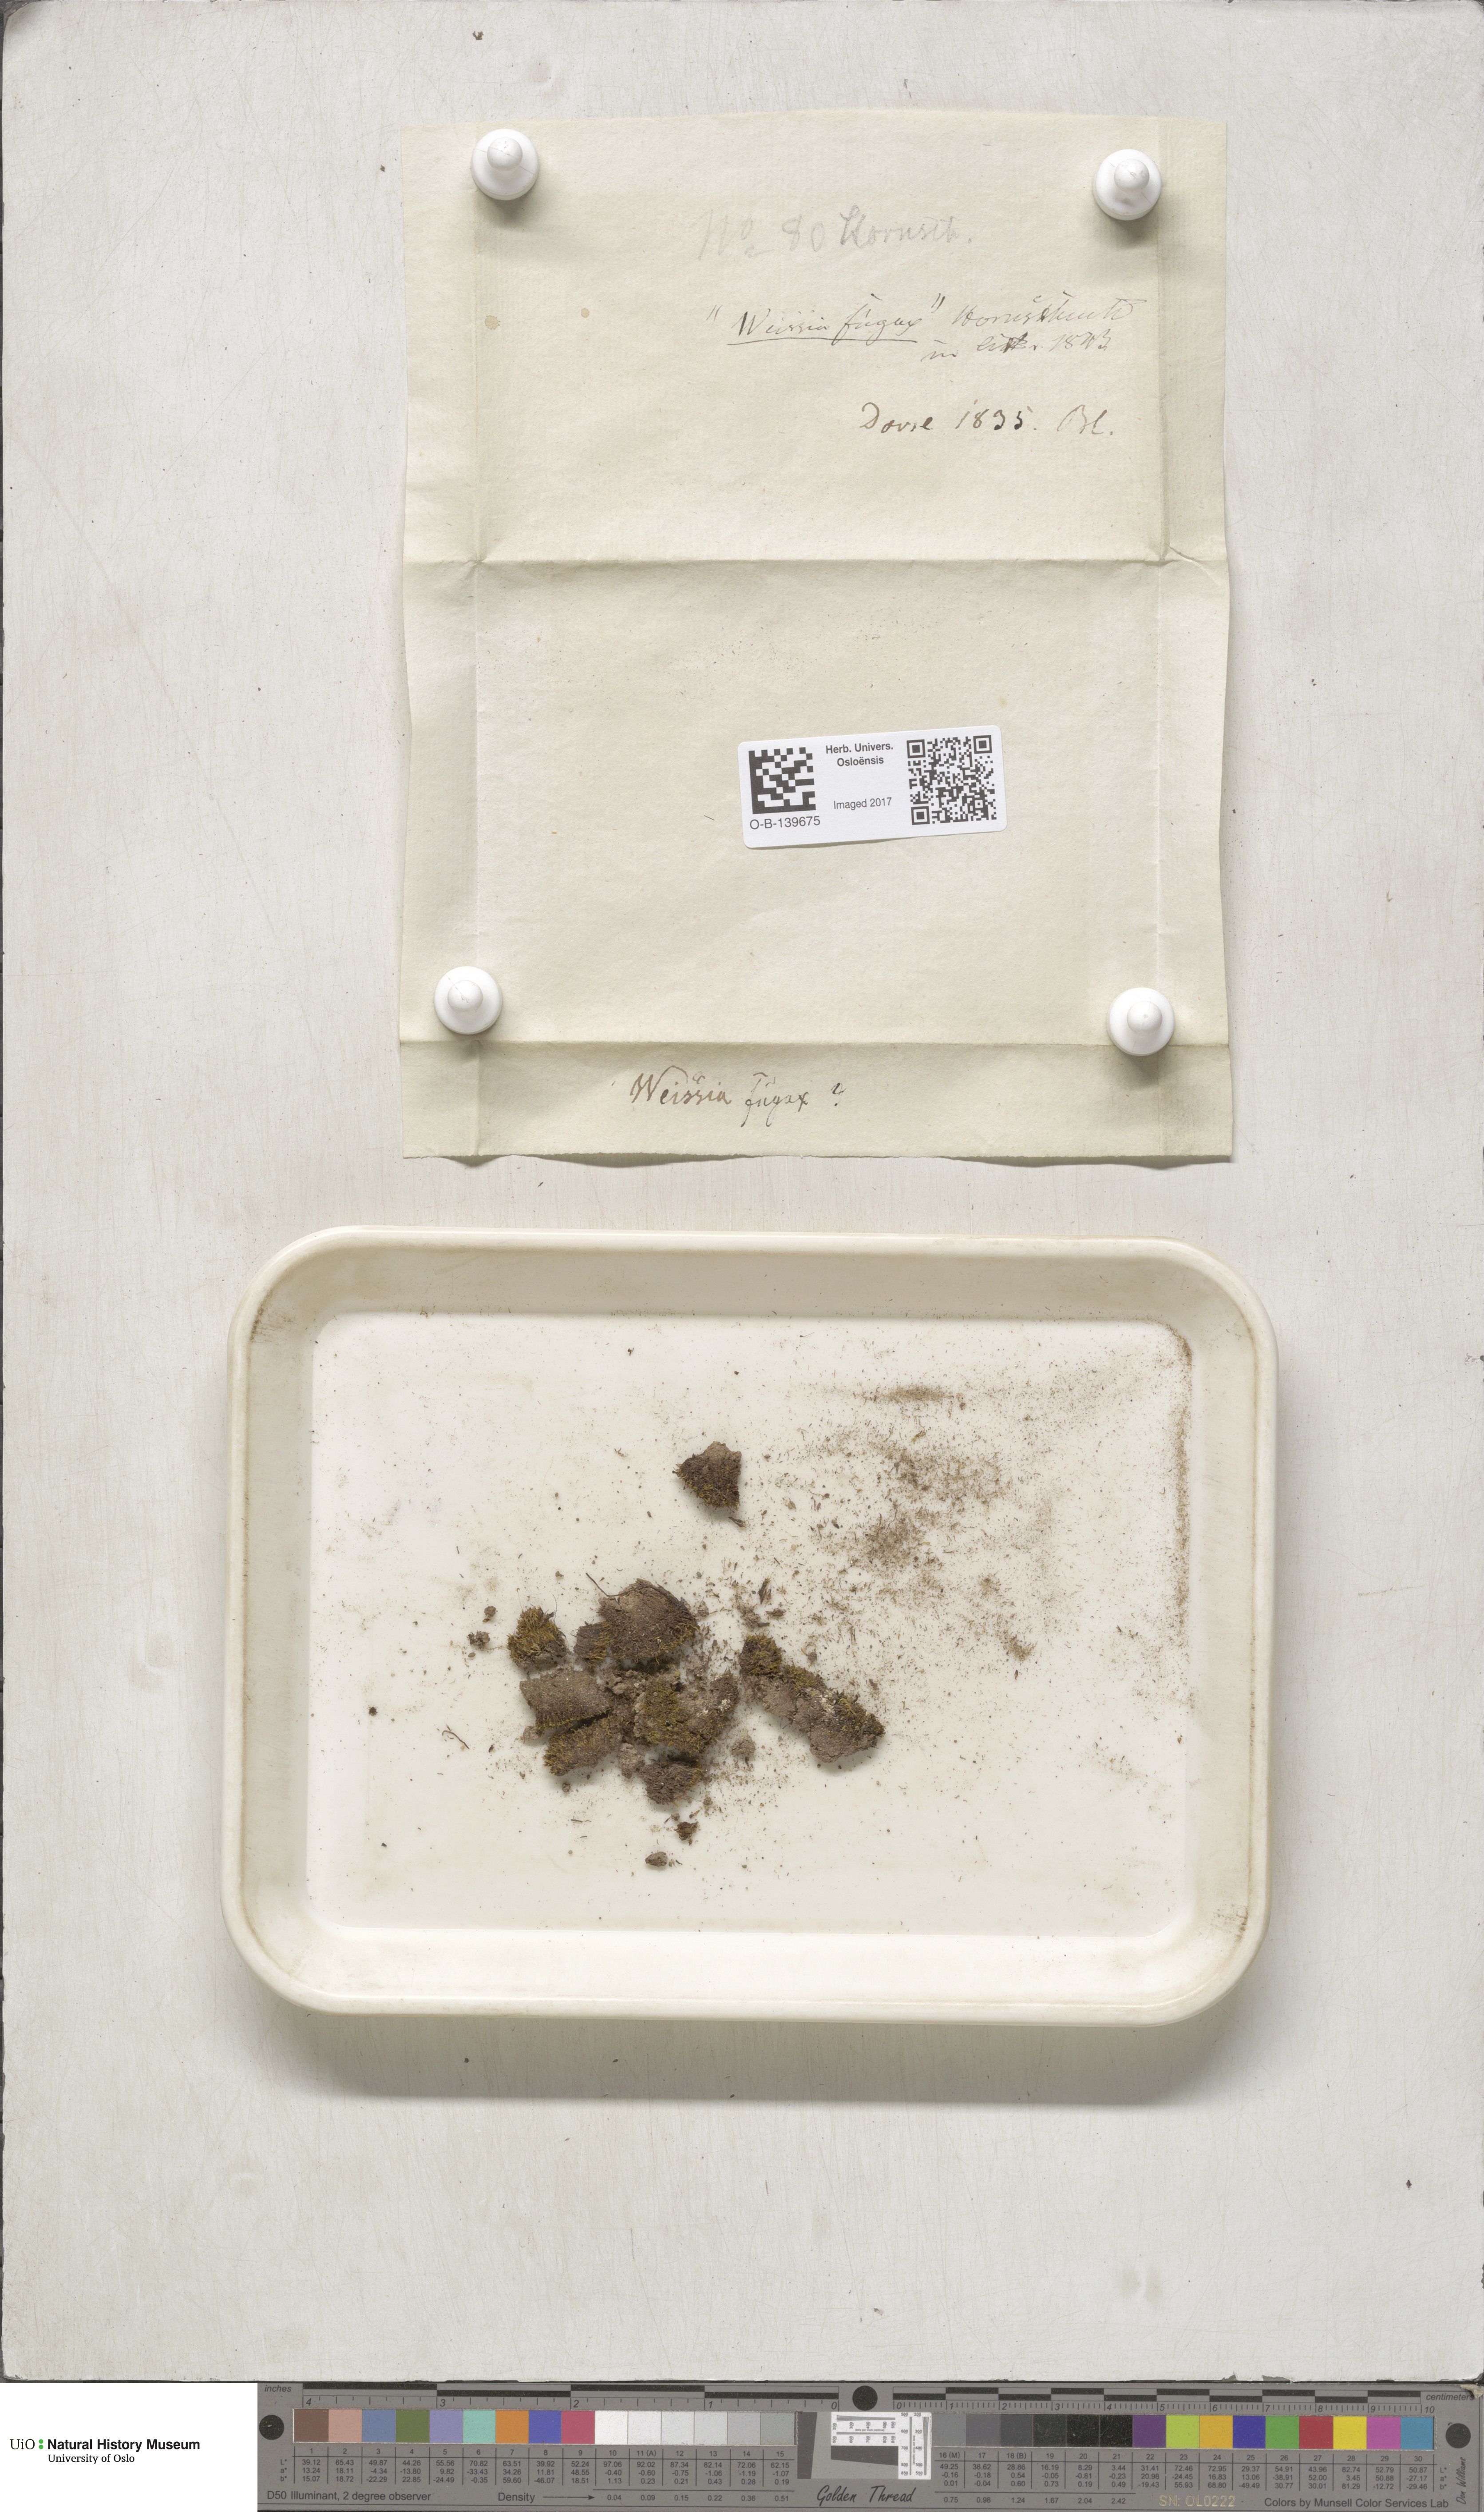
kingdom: Plantae
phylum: Bryophyta
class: Bryopsida
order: Dicranales
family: Rhabdoweisiaceae
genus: Rhabdoweisia
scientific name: Rhabdoweisia fugax
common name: Dwarf streak-moss
